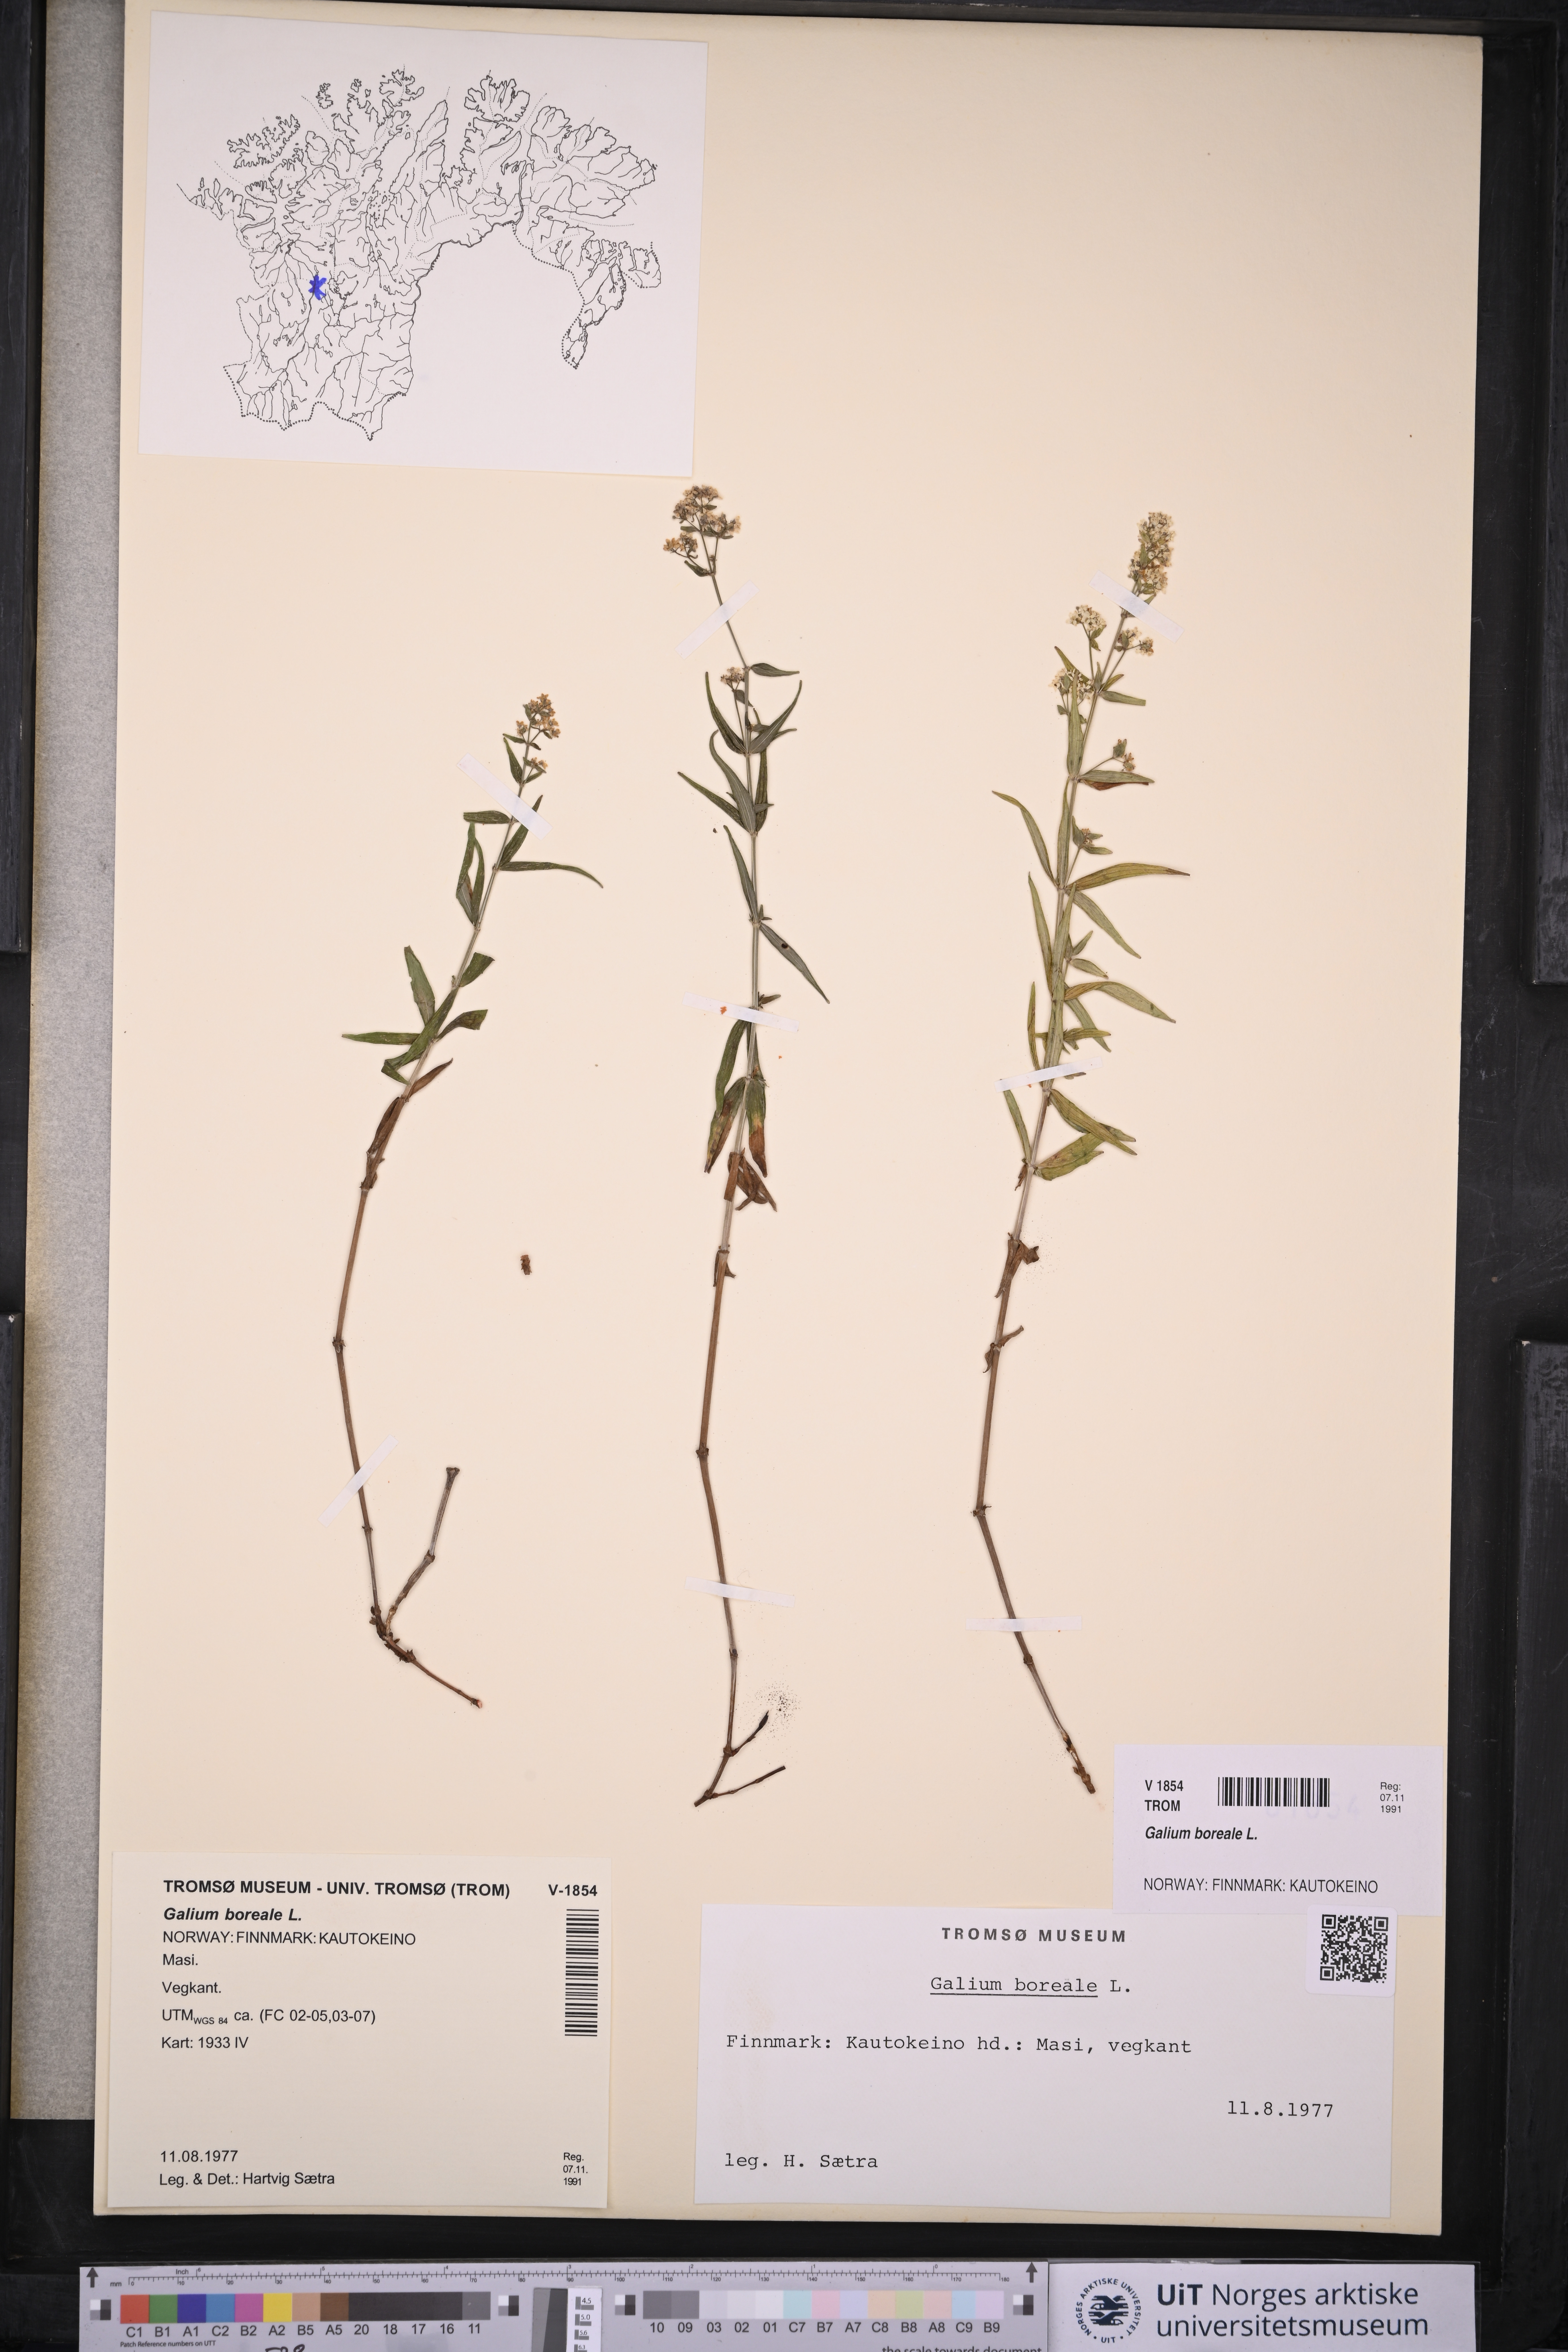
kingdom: Plantae
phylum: Tracheophyta
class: Magnoliopsida
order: Gentianales
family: Rubiaceae
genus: Galium
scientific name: Galium boreale
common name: Northern bedstraw
